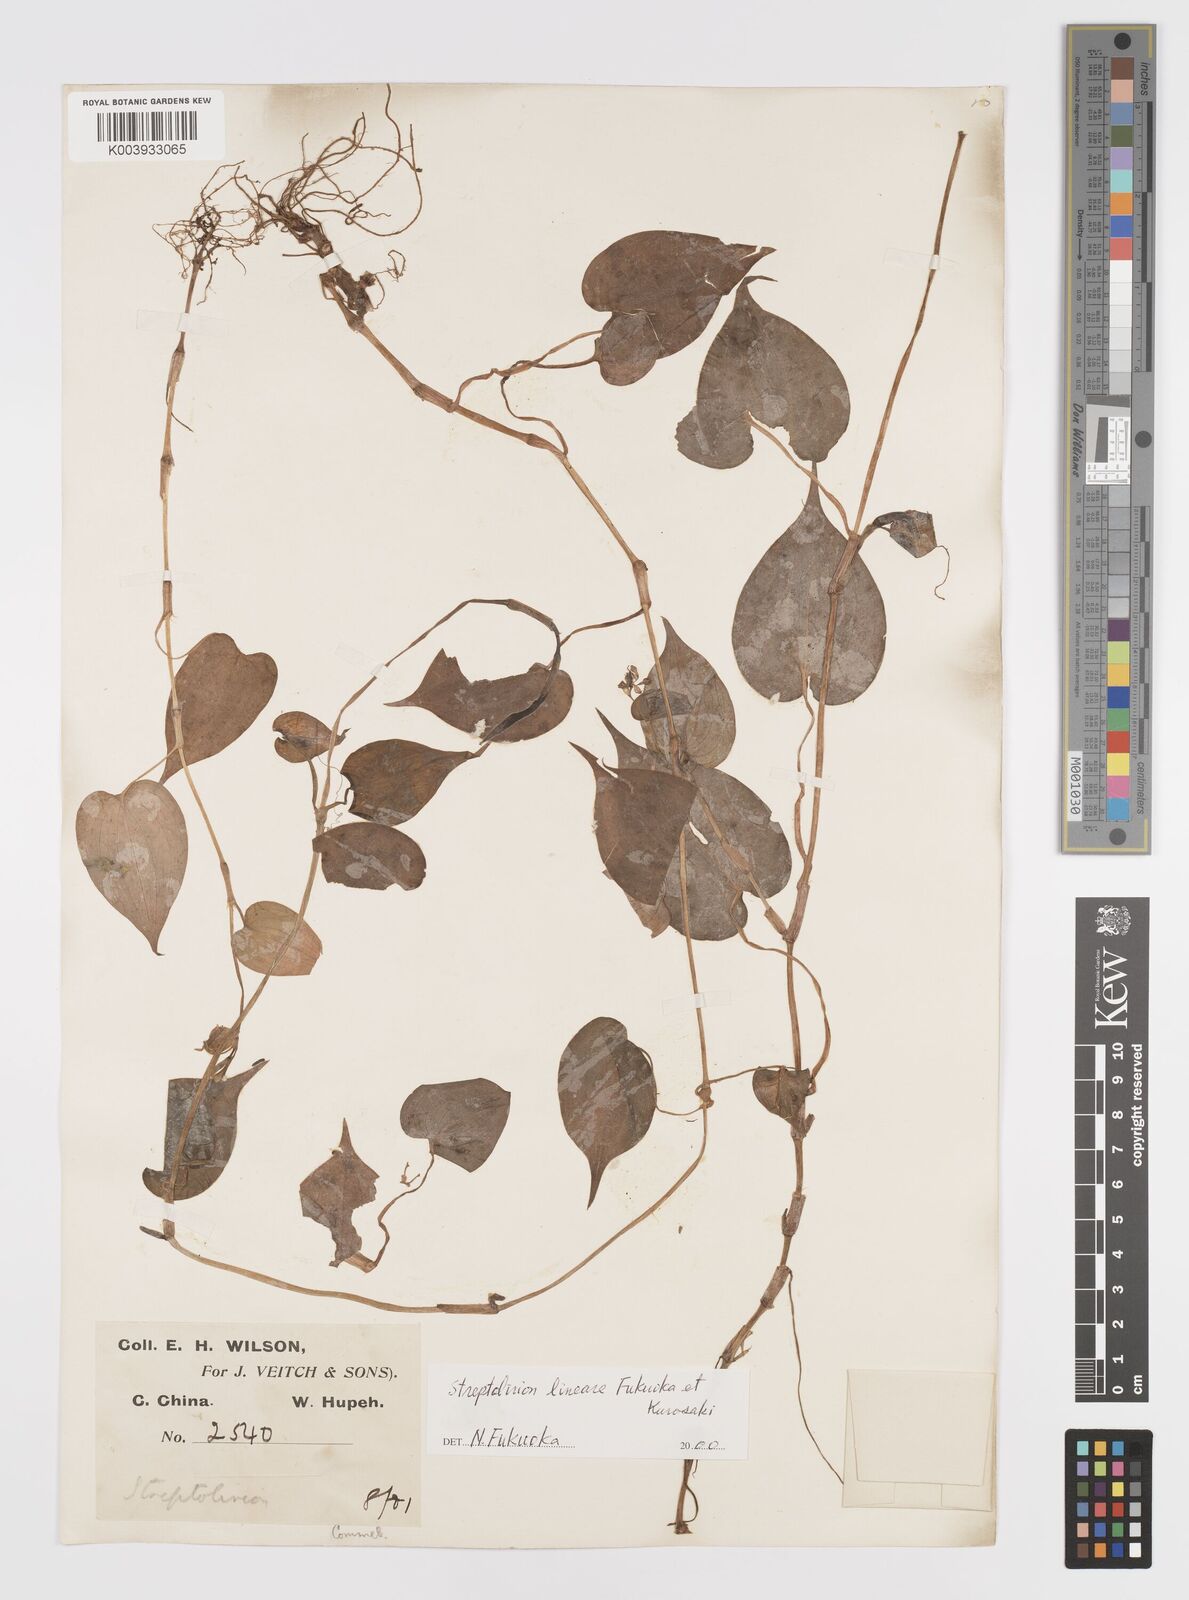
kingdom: Plantae
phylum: Tracheophyta
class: Liliopsida
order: Commelinales
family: Commelinaceae
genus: Streptolirion
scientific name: Streptolirion lineare
